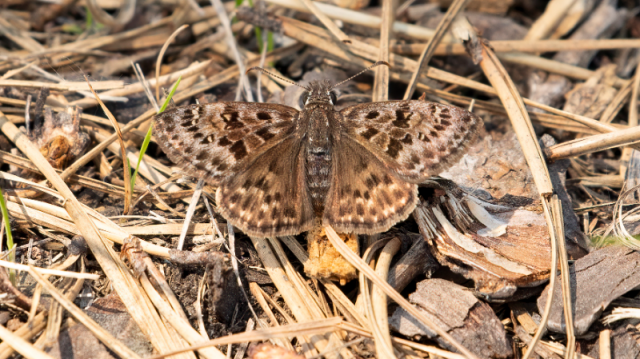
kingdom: Animalia
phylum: Arthropoda
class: Insecta
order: Lepidoptera
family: Hesperiidae
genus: Erynnis
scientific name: Erynnis martialis
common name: Mottled Duskywing
